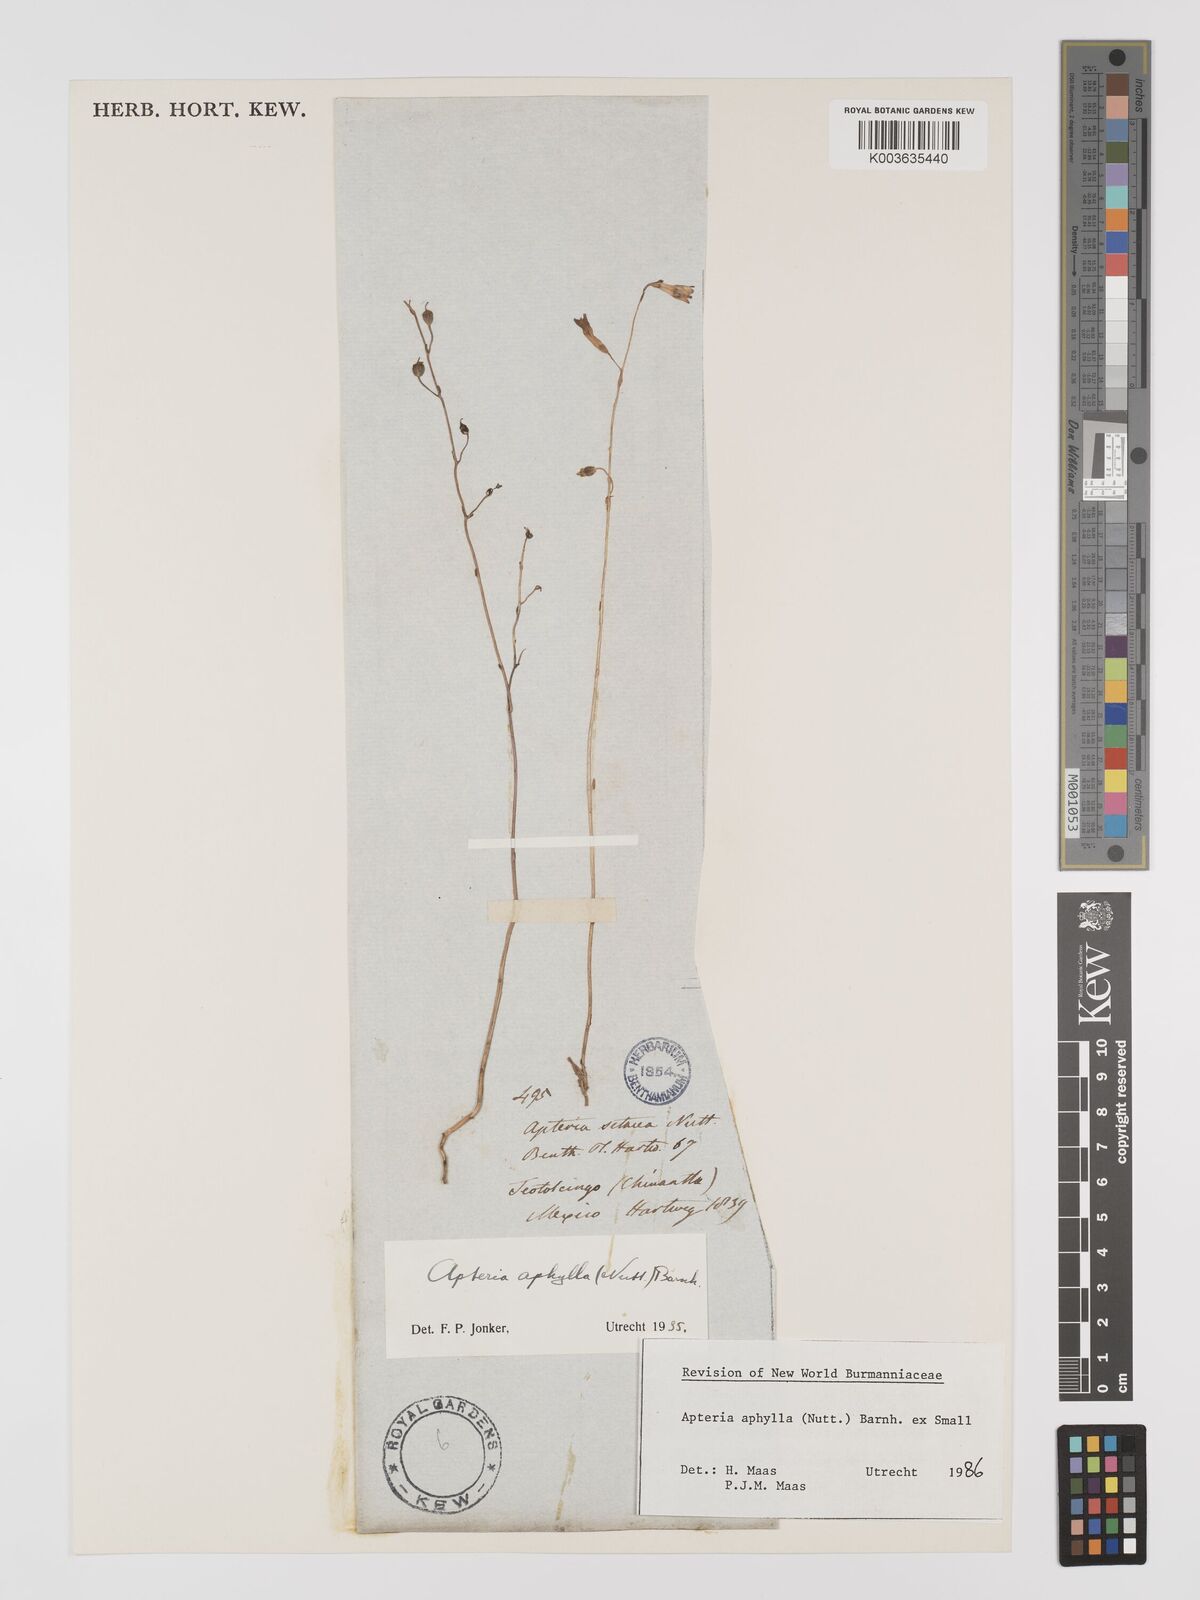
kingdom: Plantae
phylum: Tracheophyta
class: Liliopsida
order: Dioscoreales
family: Burmanniaceae
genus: Apteria
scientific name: Apteria aphylla
